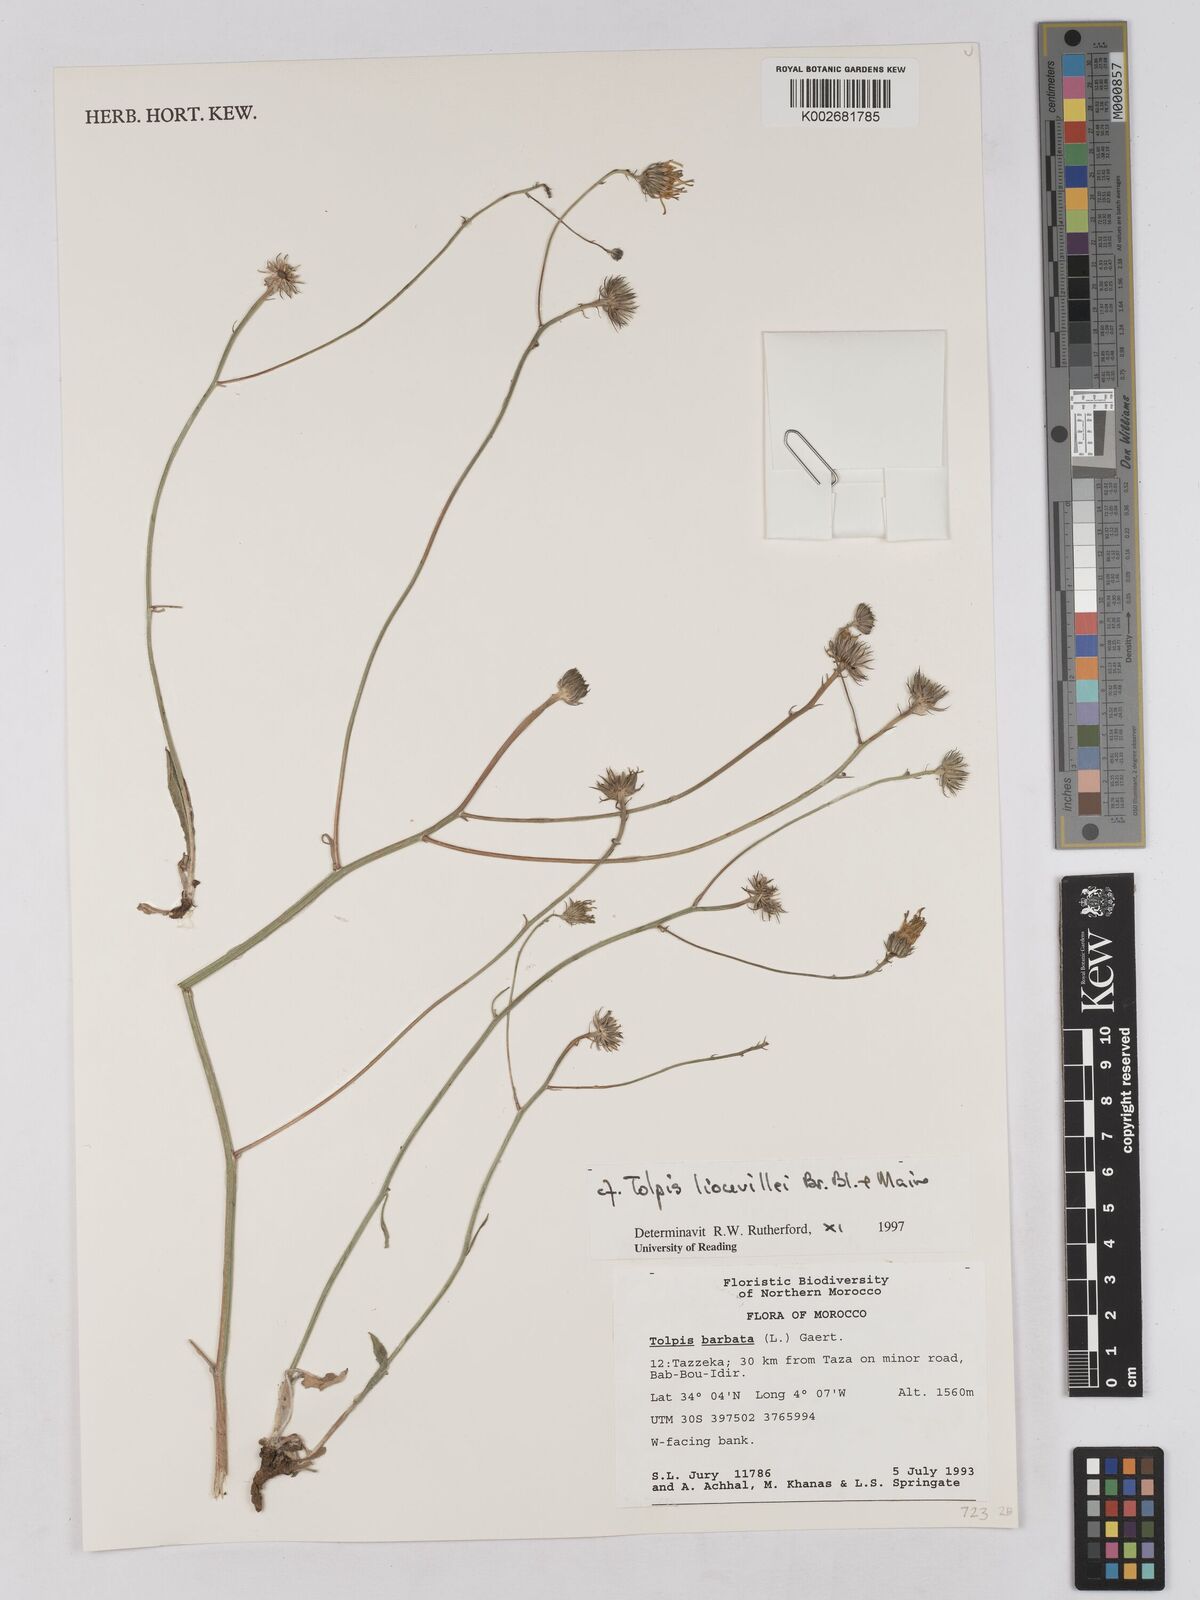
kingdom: Plantae
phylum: Tracheophyta
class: Magnoliopsida
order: Asterales
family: Asteraceae
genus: Tolpis
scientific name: Tolpis liouvillei
